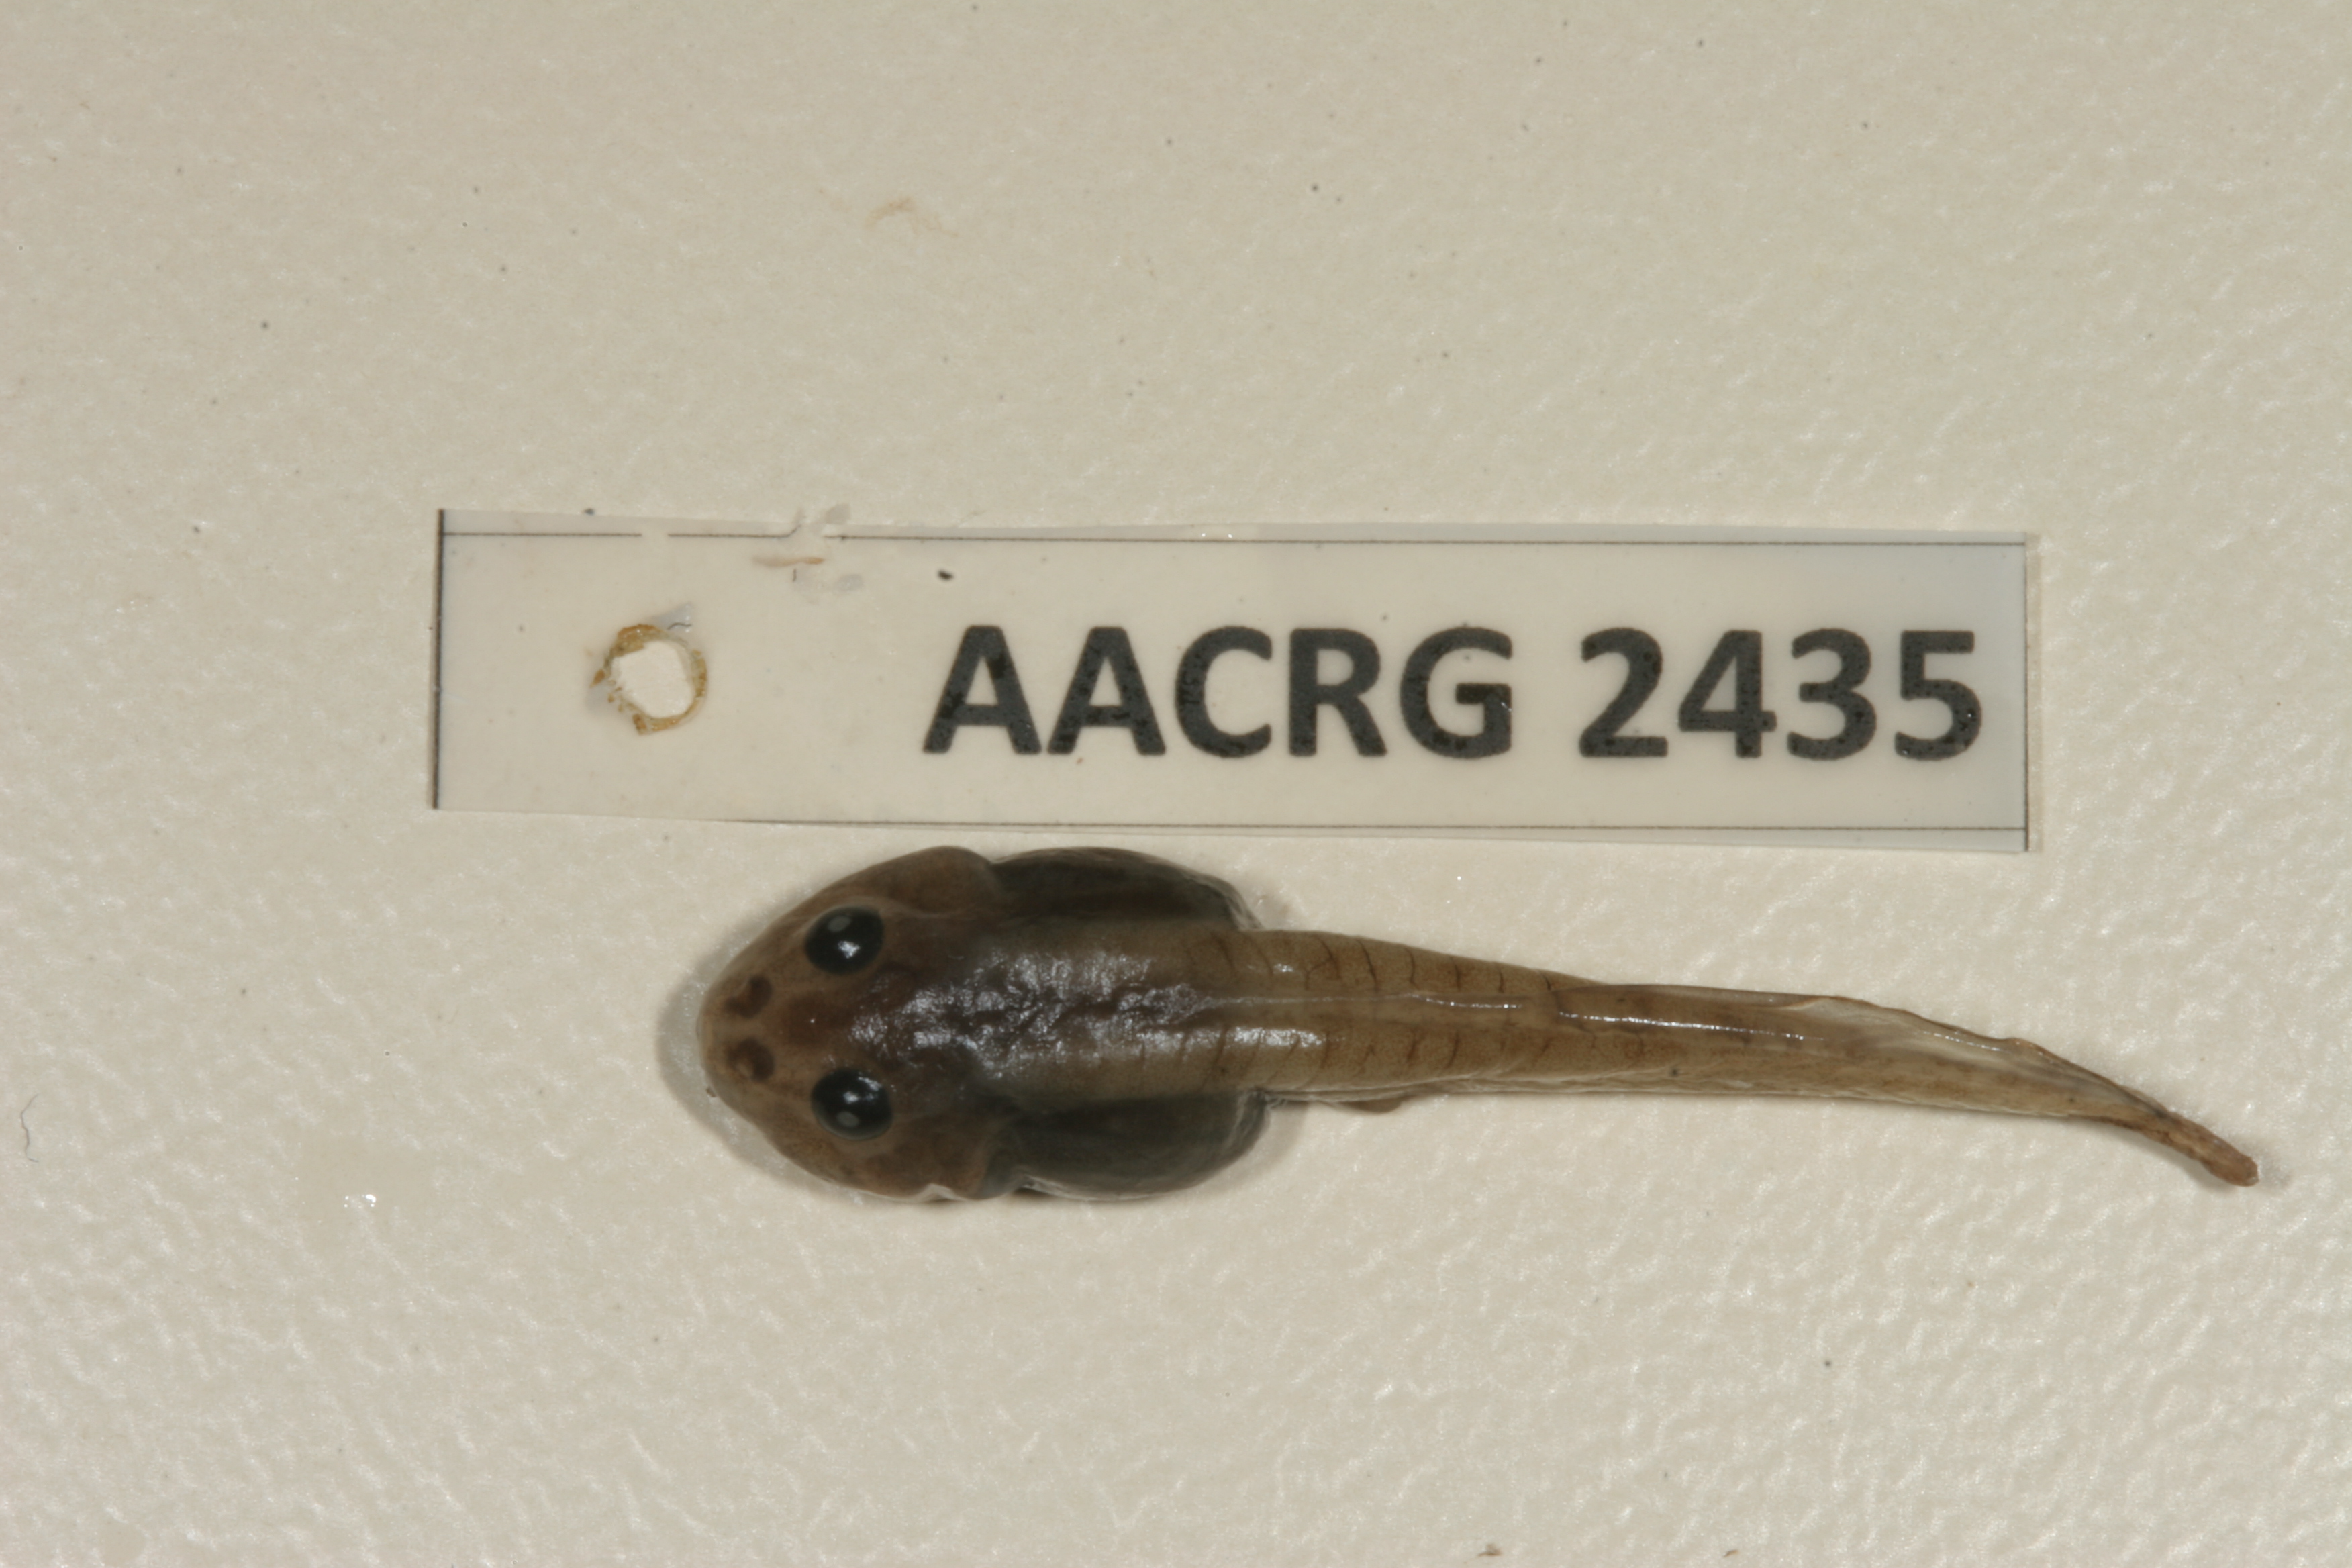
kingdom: Animalia
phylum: Chordata
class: Amphibia
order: Anura
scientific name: Anura
